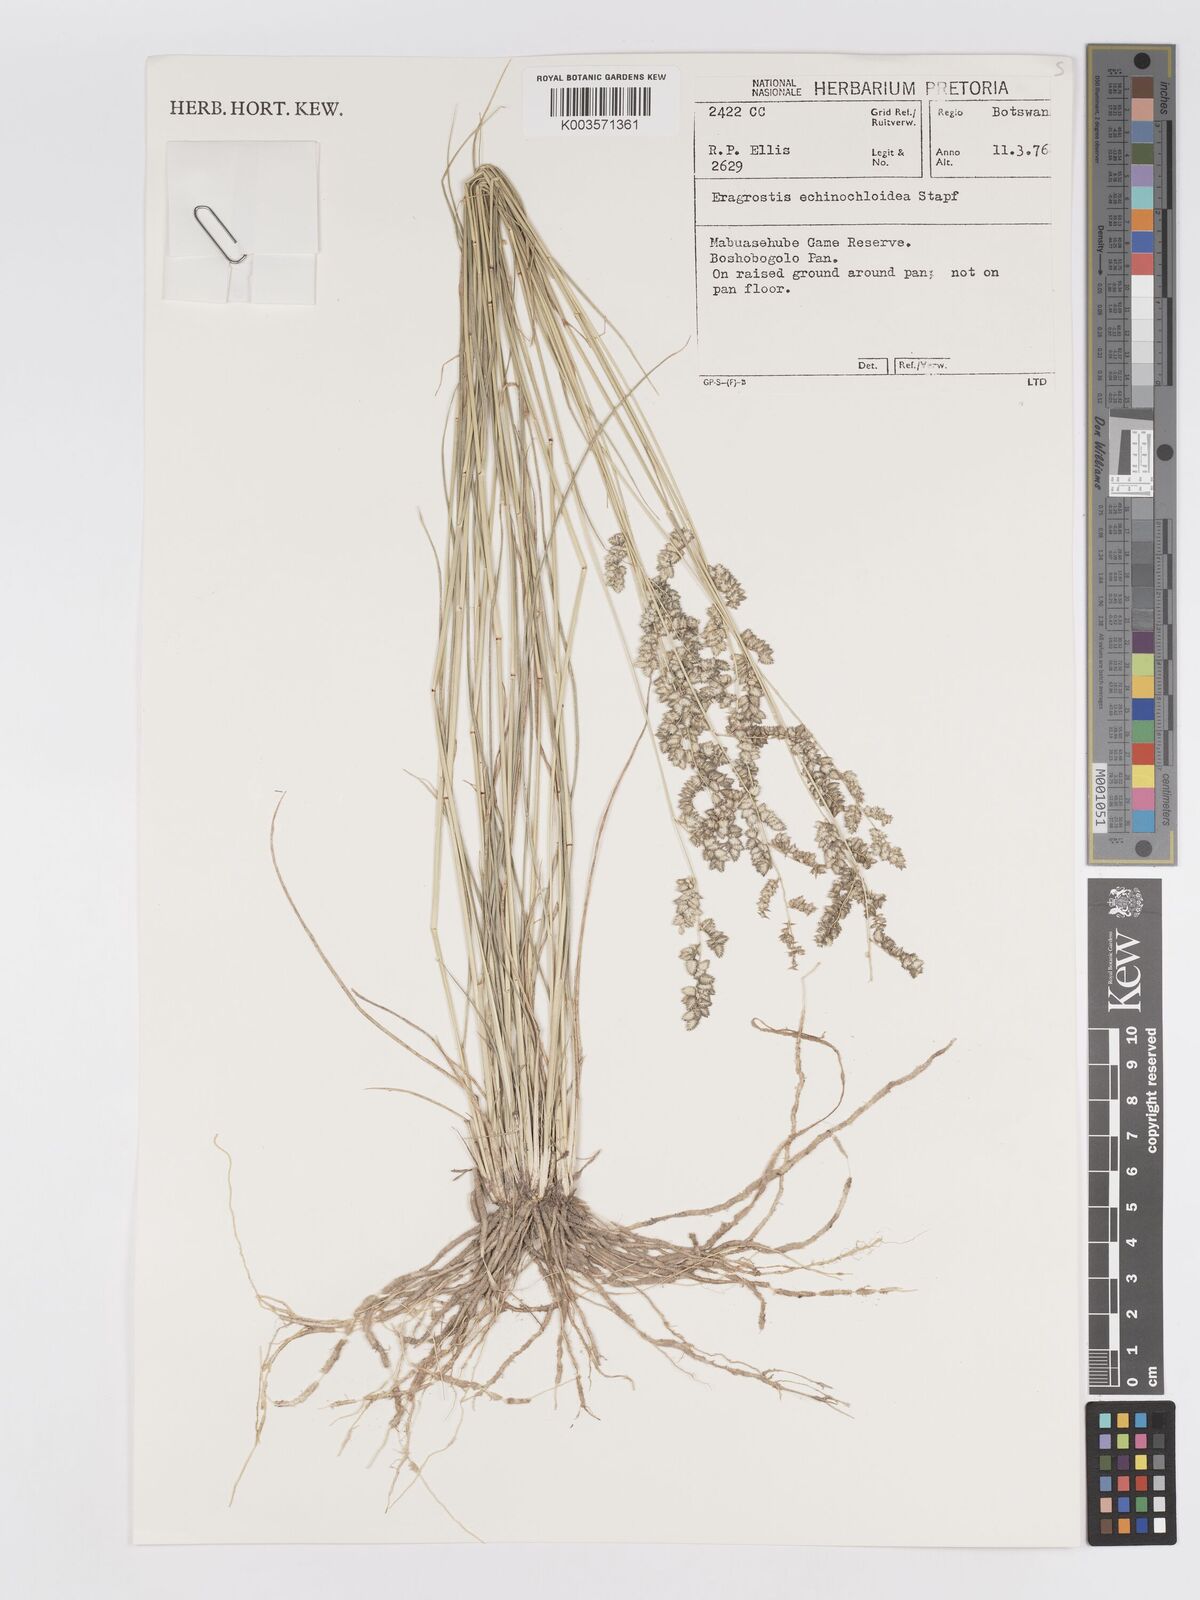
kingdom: Plantae
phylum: Tracheophyta
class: Liliopsida
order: Poales
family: Poaceae
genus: Eragrostis
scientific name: Eragrostis echinochloidea
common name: African lovegrass
